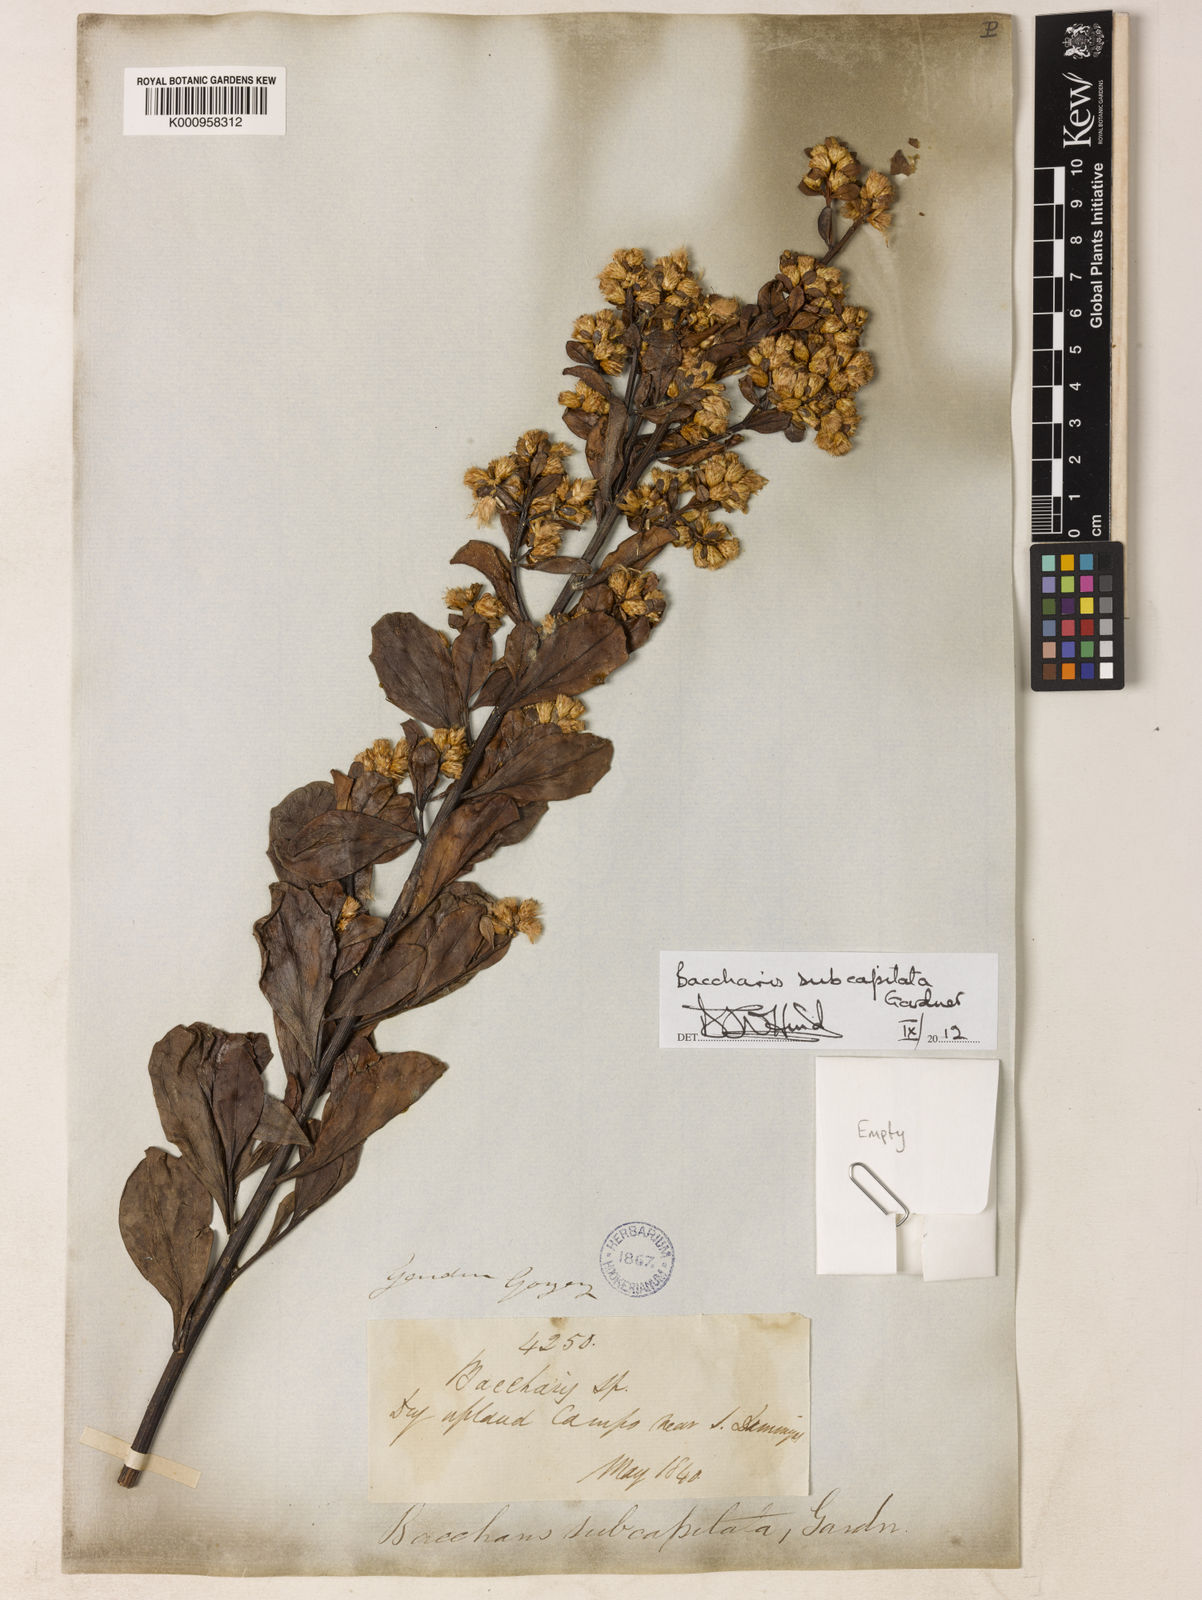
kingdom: Plantae
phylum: Tracheophyta
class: Magnoliopsida
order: Asterales
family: Asteraceae
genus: Baccharis
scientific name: Baccharis subdentata
